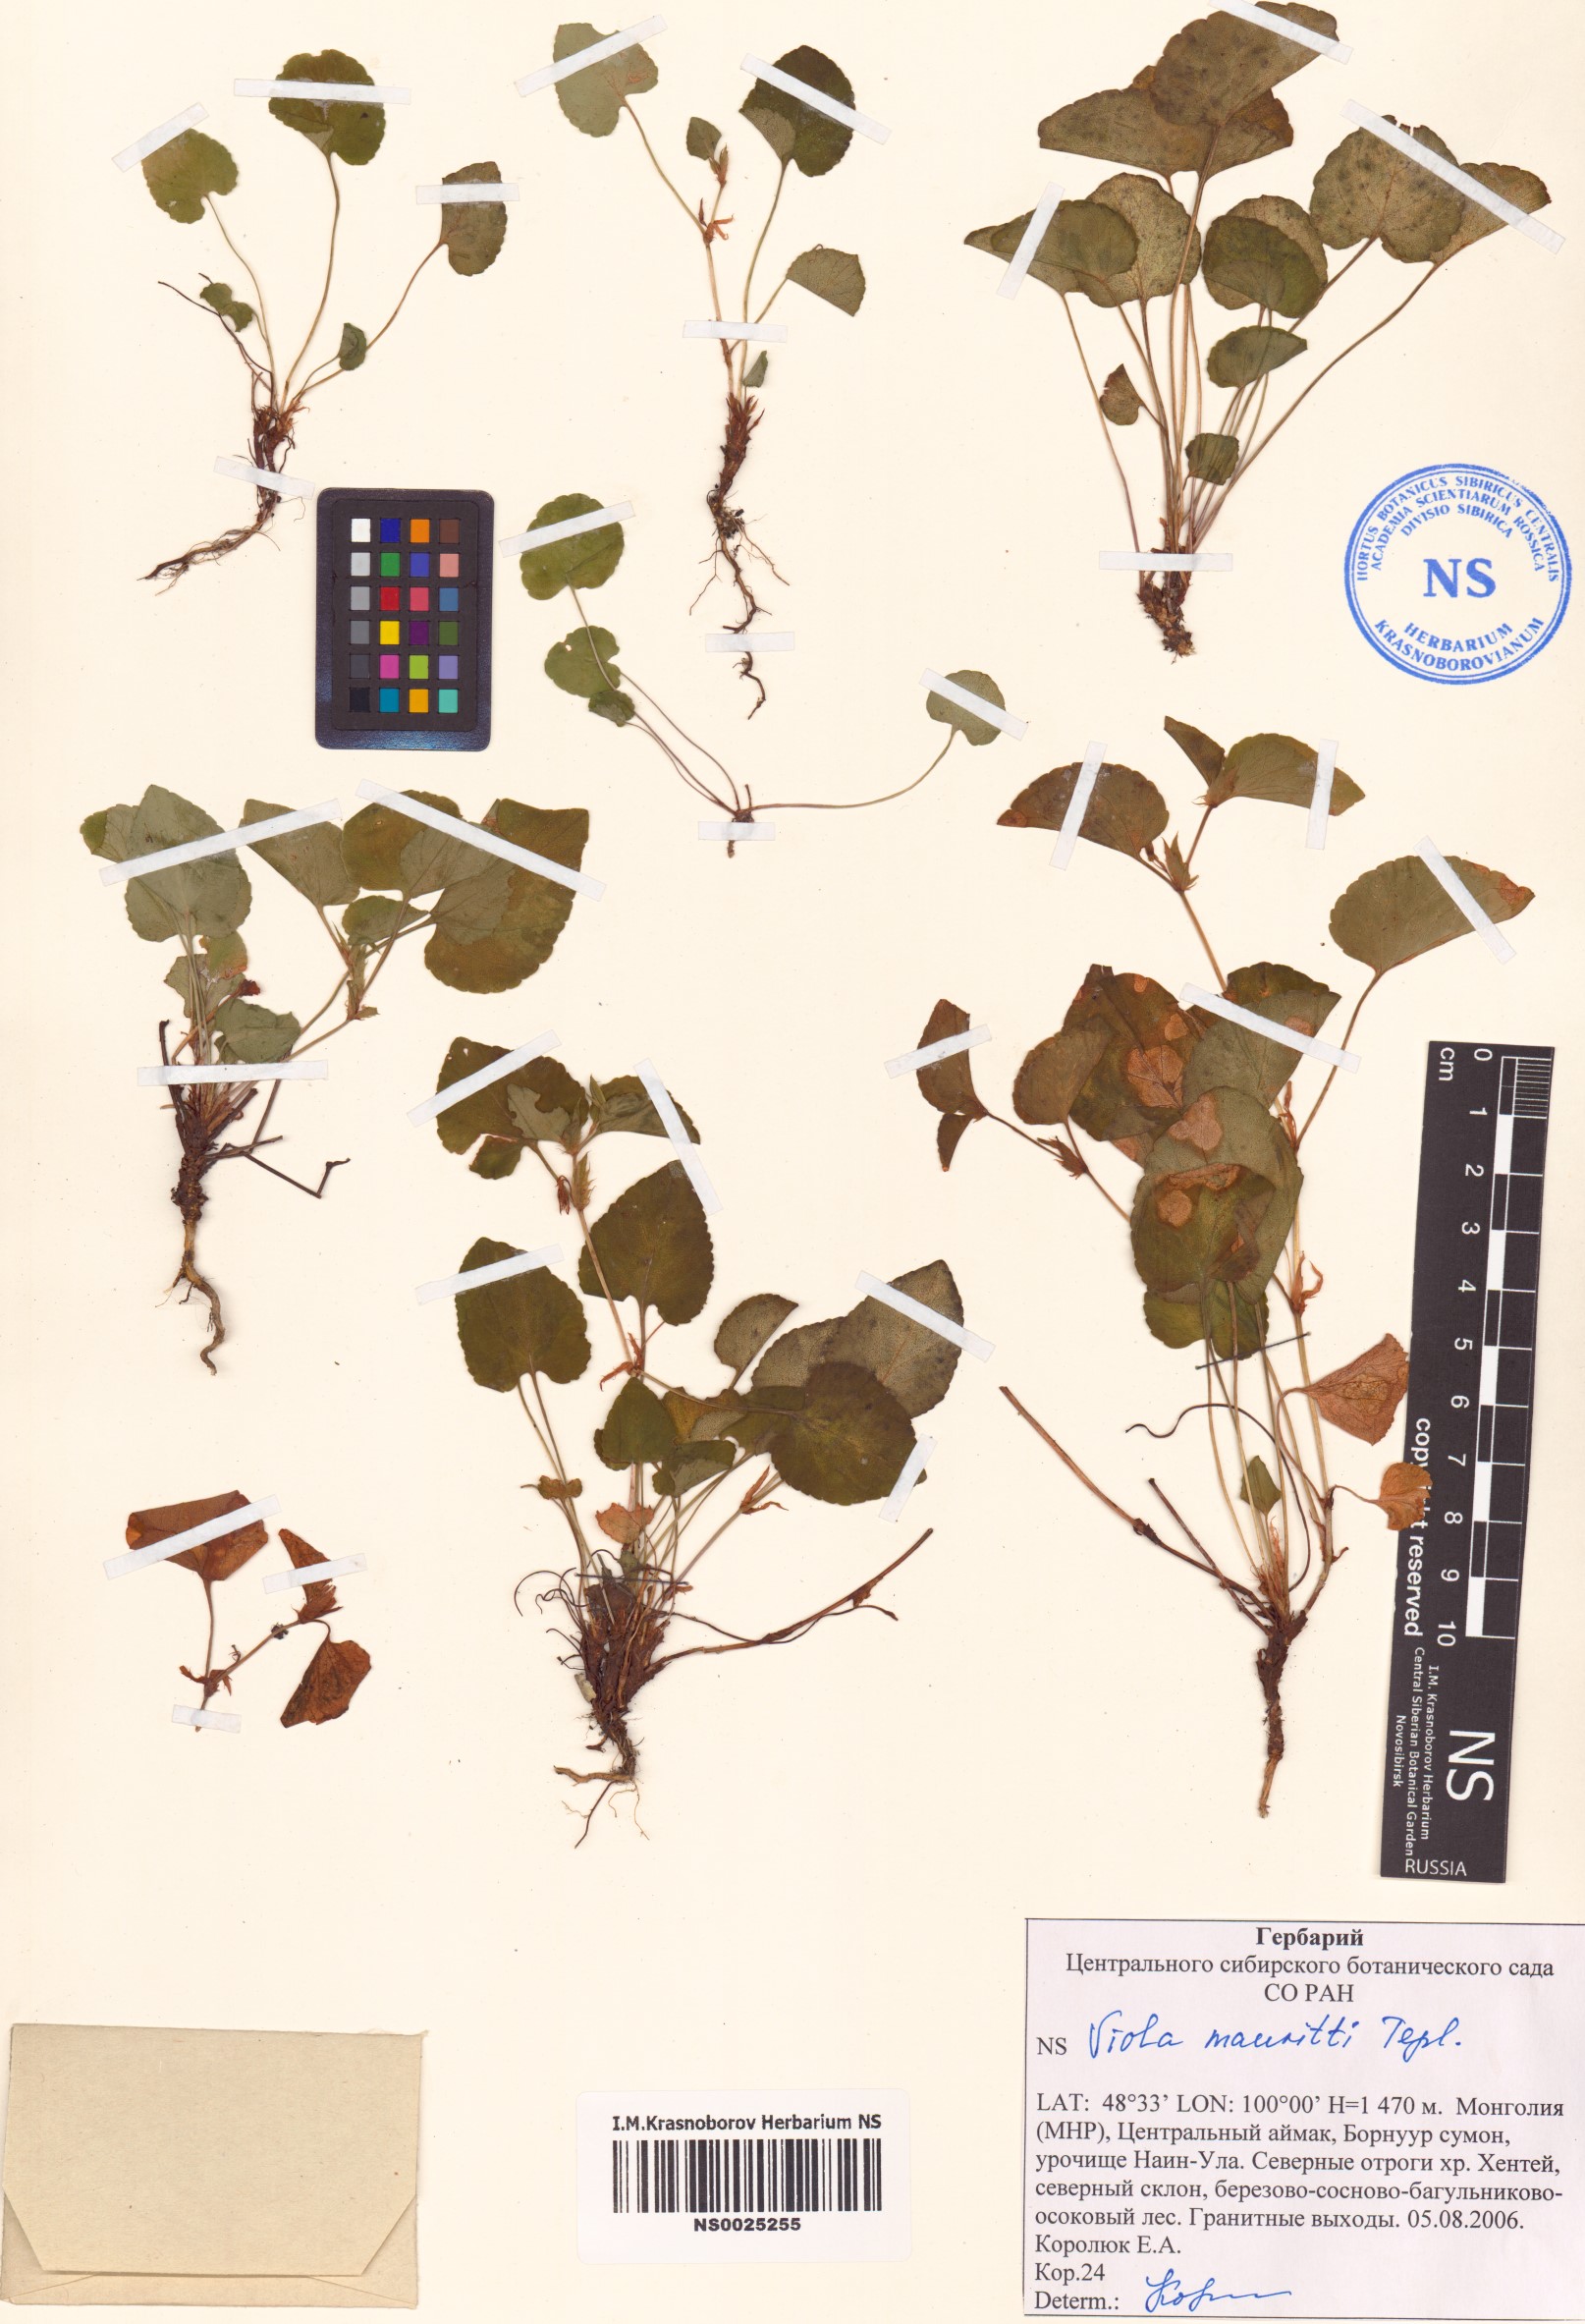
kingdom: Plantae
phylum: Tracheophyta
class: Magnoliopsida
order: Malpighiales
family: Violaceae
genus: Viola
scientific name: Viola mauritii
